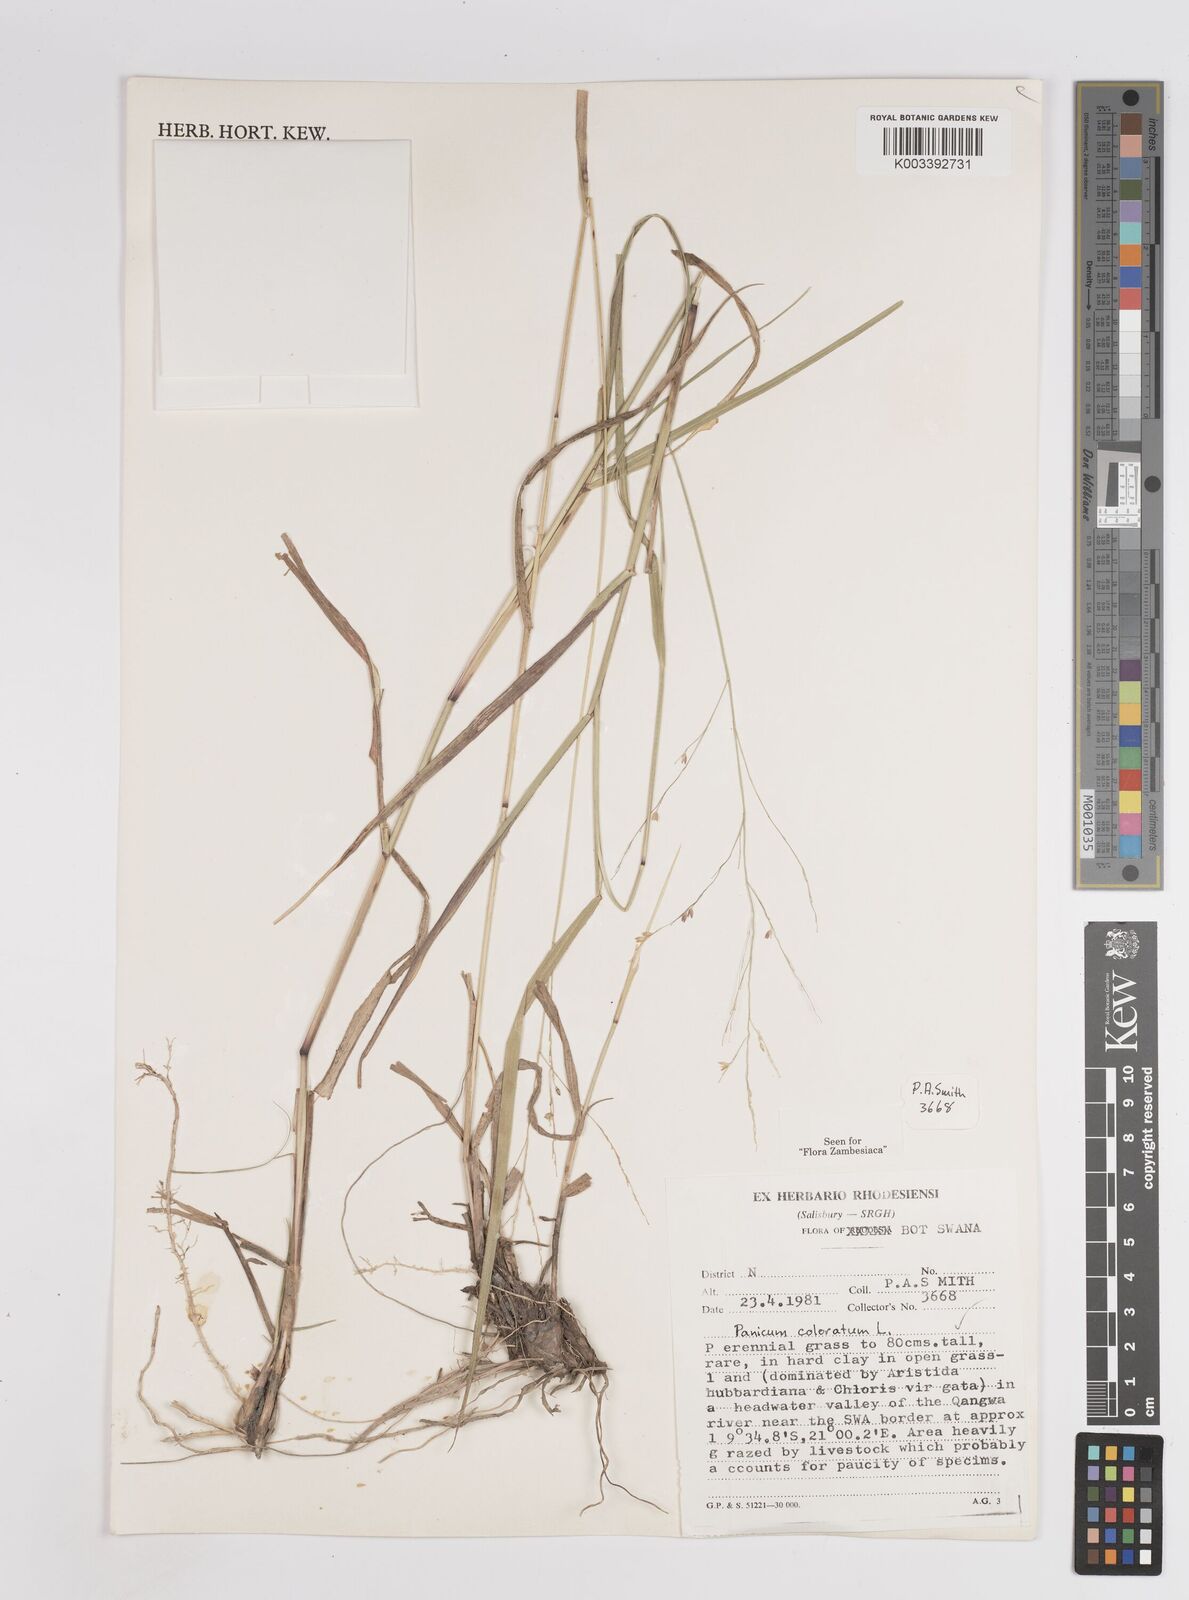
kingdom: Plantae
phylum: Tracheophyta
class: Liliopsida
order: Poales
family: Poaceae
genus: Panicum
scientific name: Panicum coloratum
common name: Kleingrass
